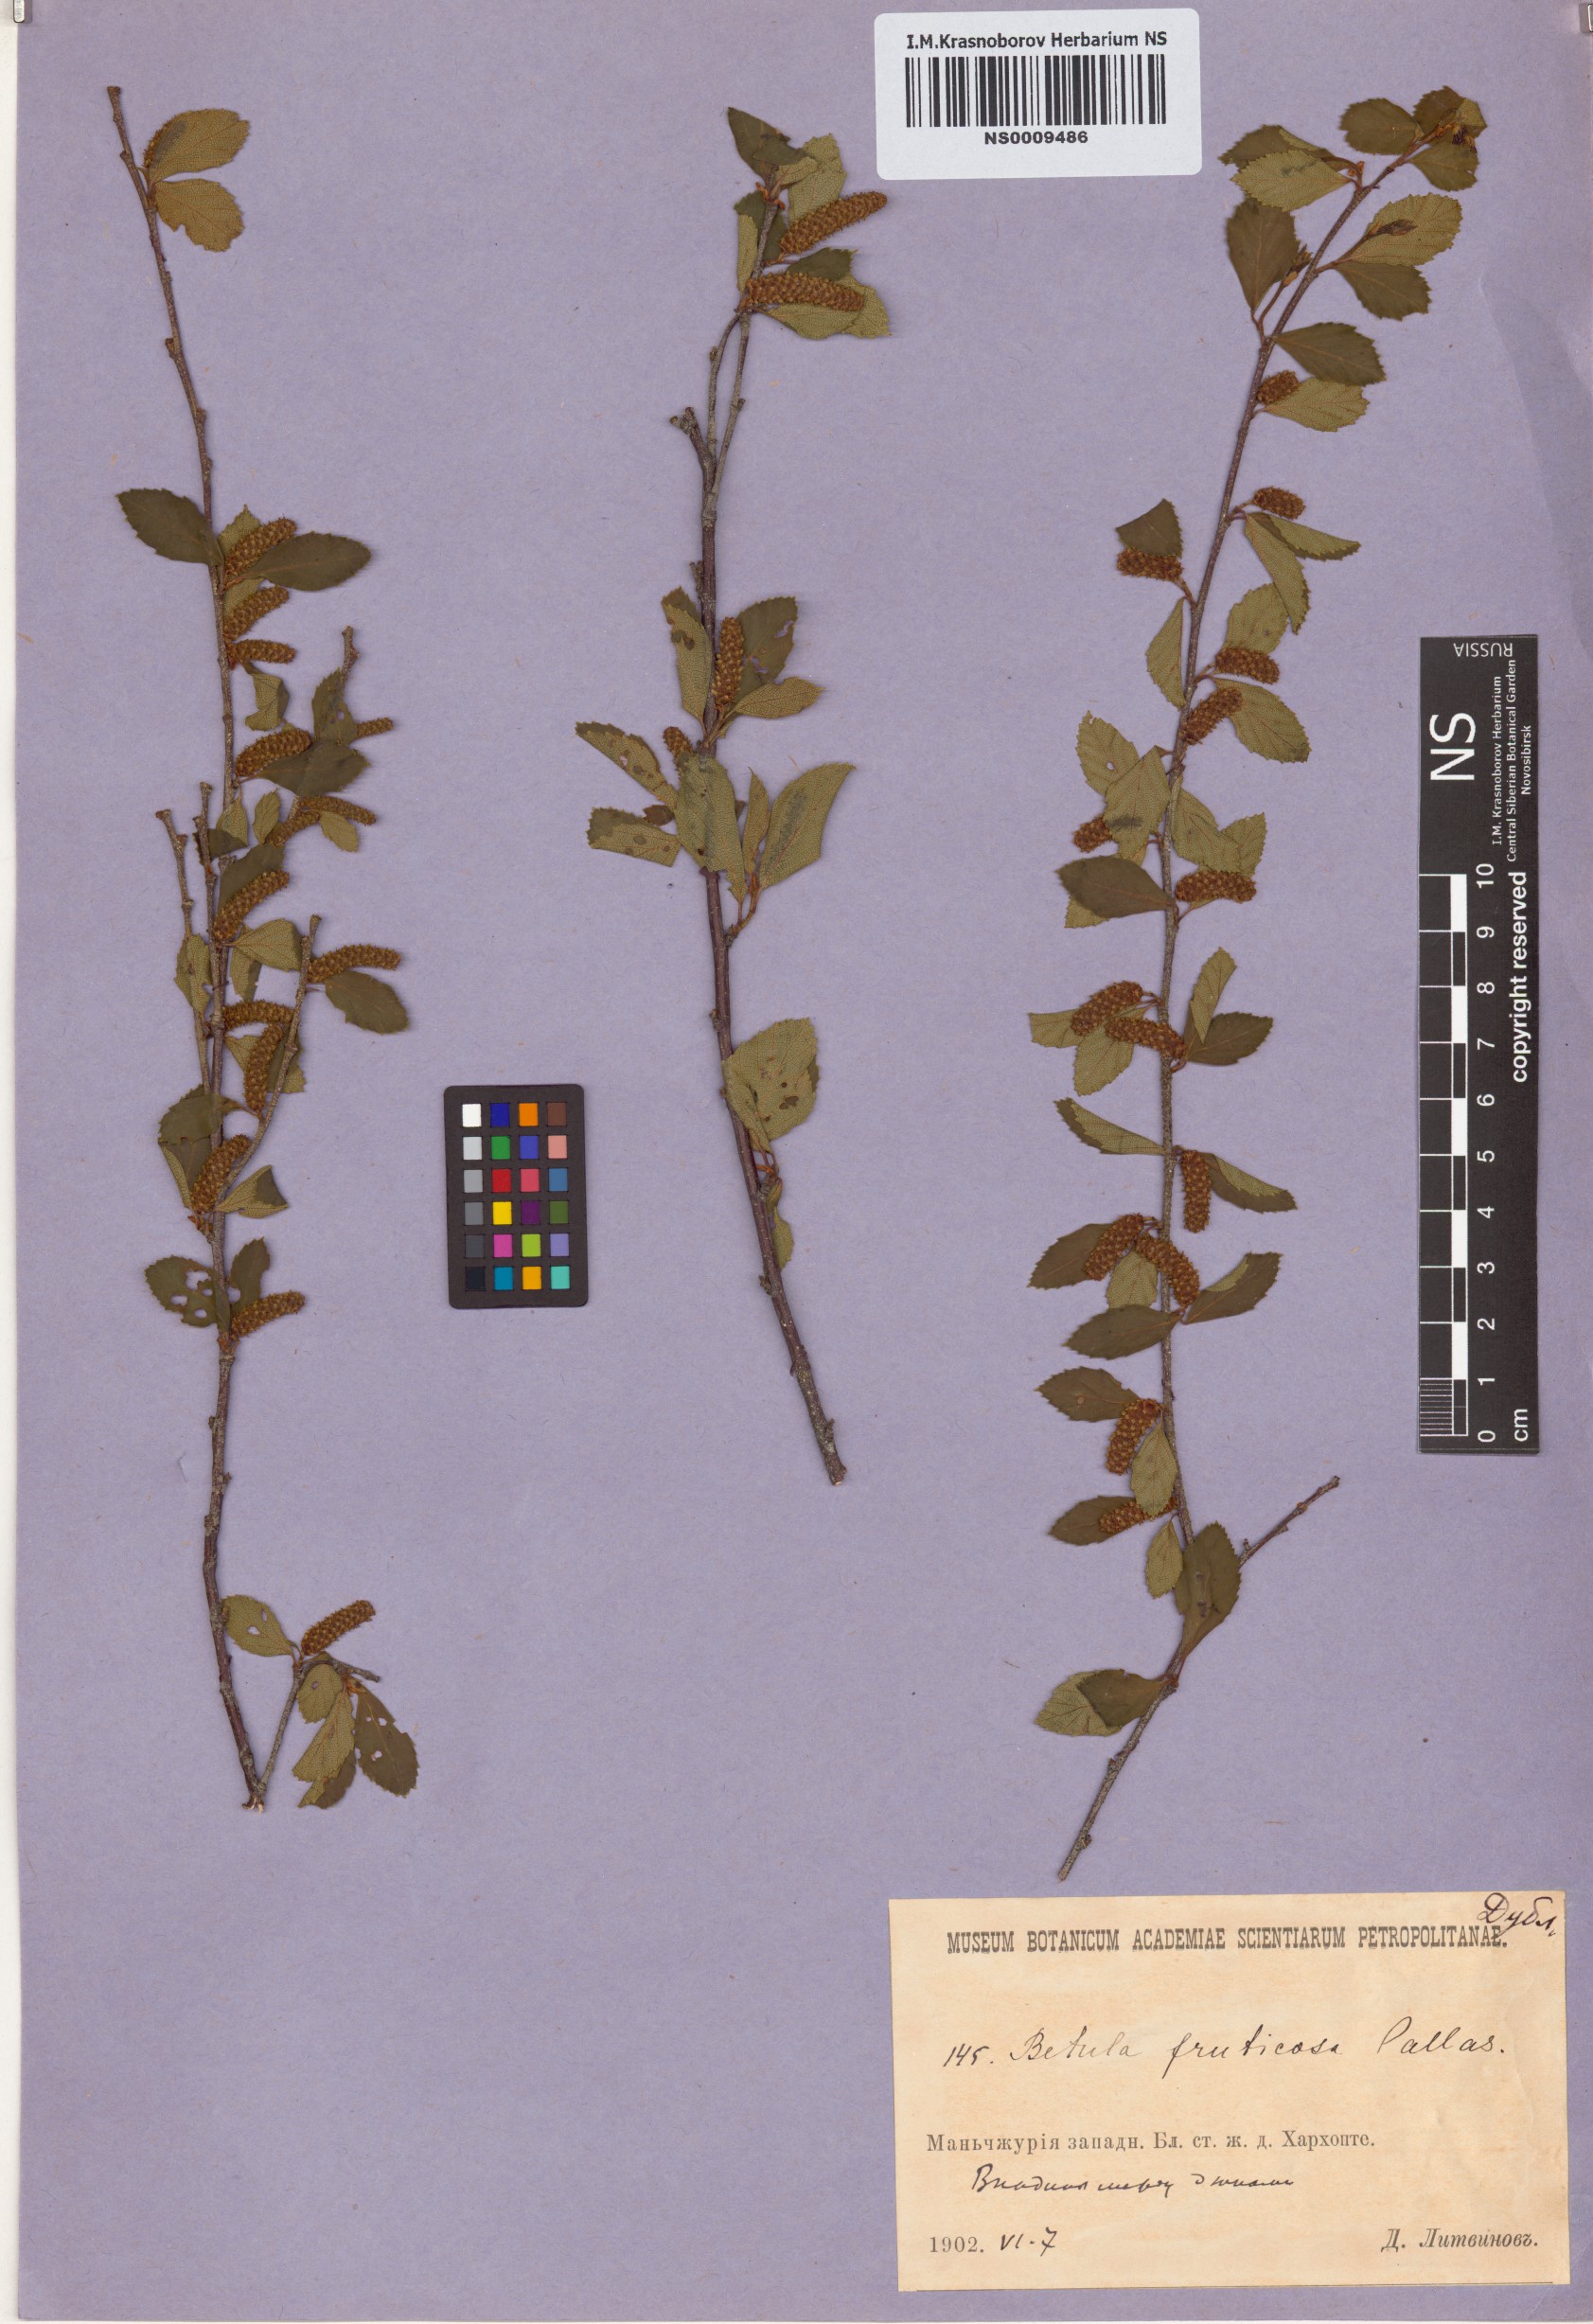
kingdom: Plantae
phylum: Tracheophyta
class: Magnoliopsida
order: Fagales
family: Betulaceae
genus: Betula
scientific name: Betula fruticosa
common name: Japanese bog birch
